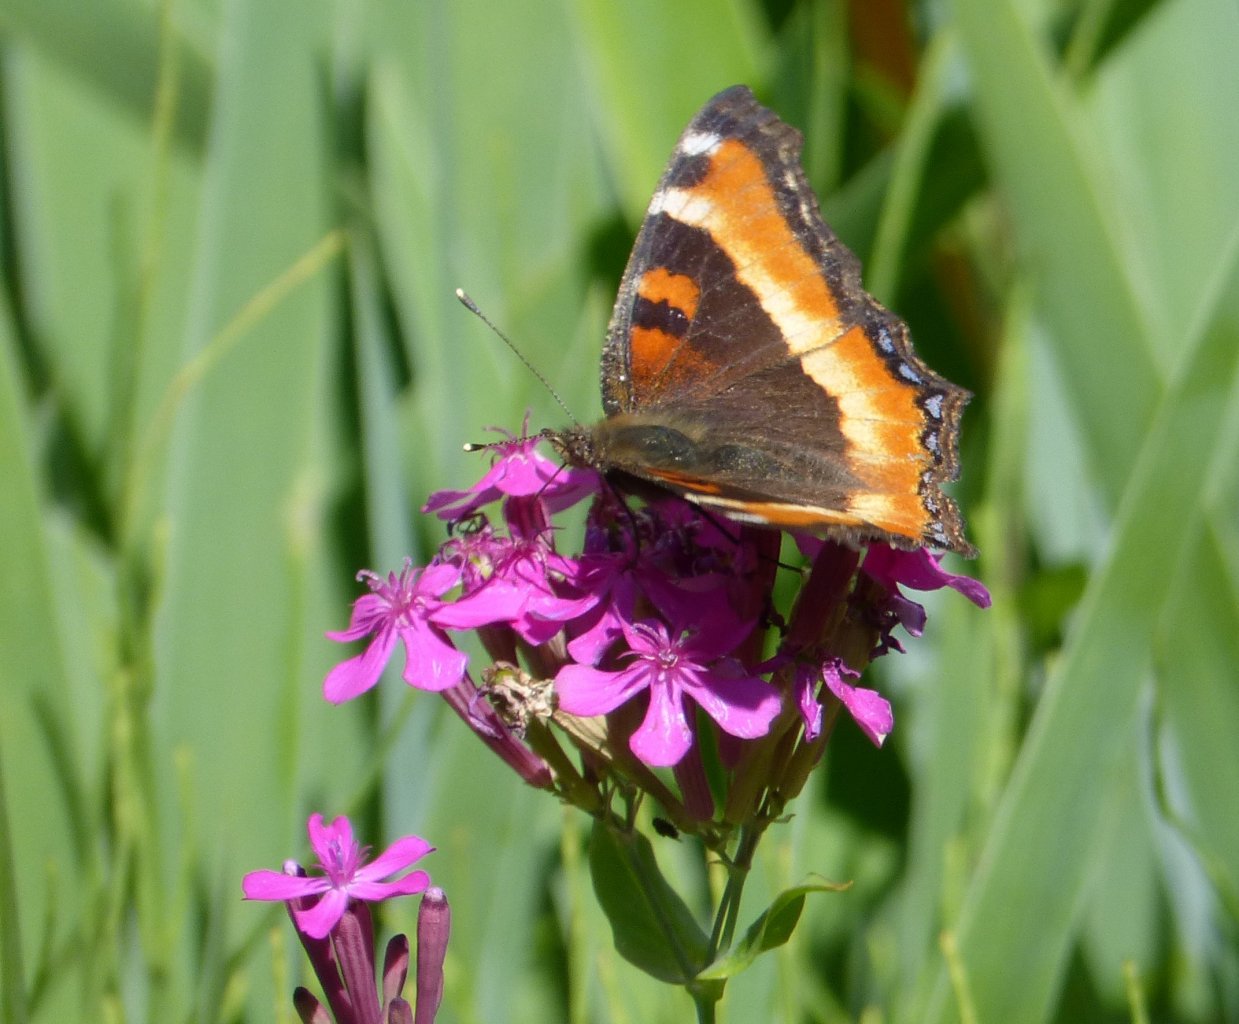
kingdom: Animalia
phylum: Arthropoda
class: Insecta
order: Lepidoptera
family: Nymphalidae
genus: Aglais
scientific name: Aglais milberti
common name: Milbert's Tortoiseshell
